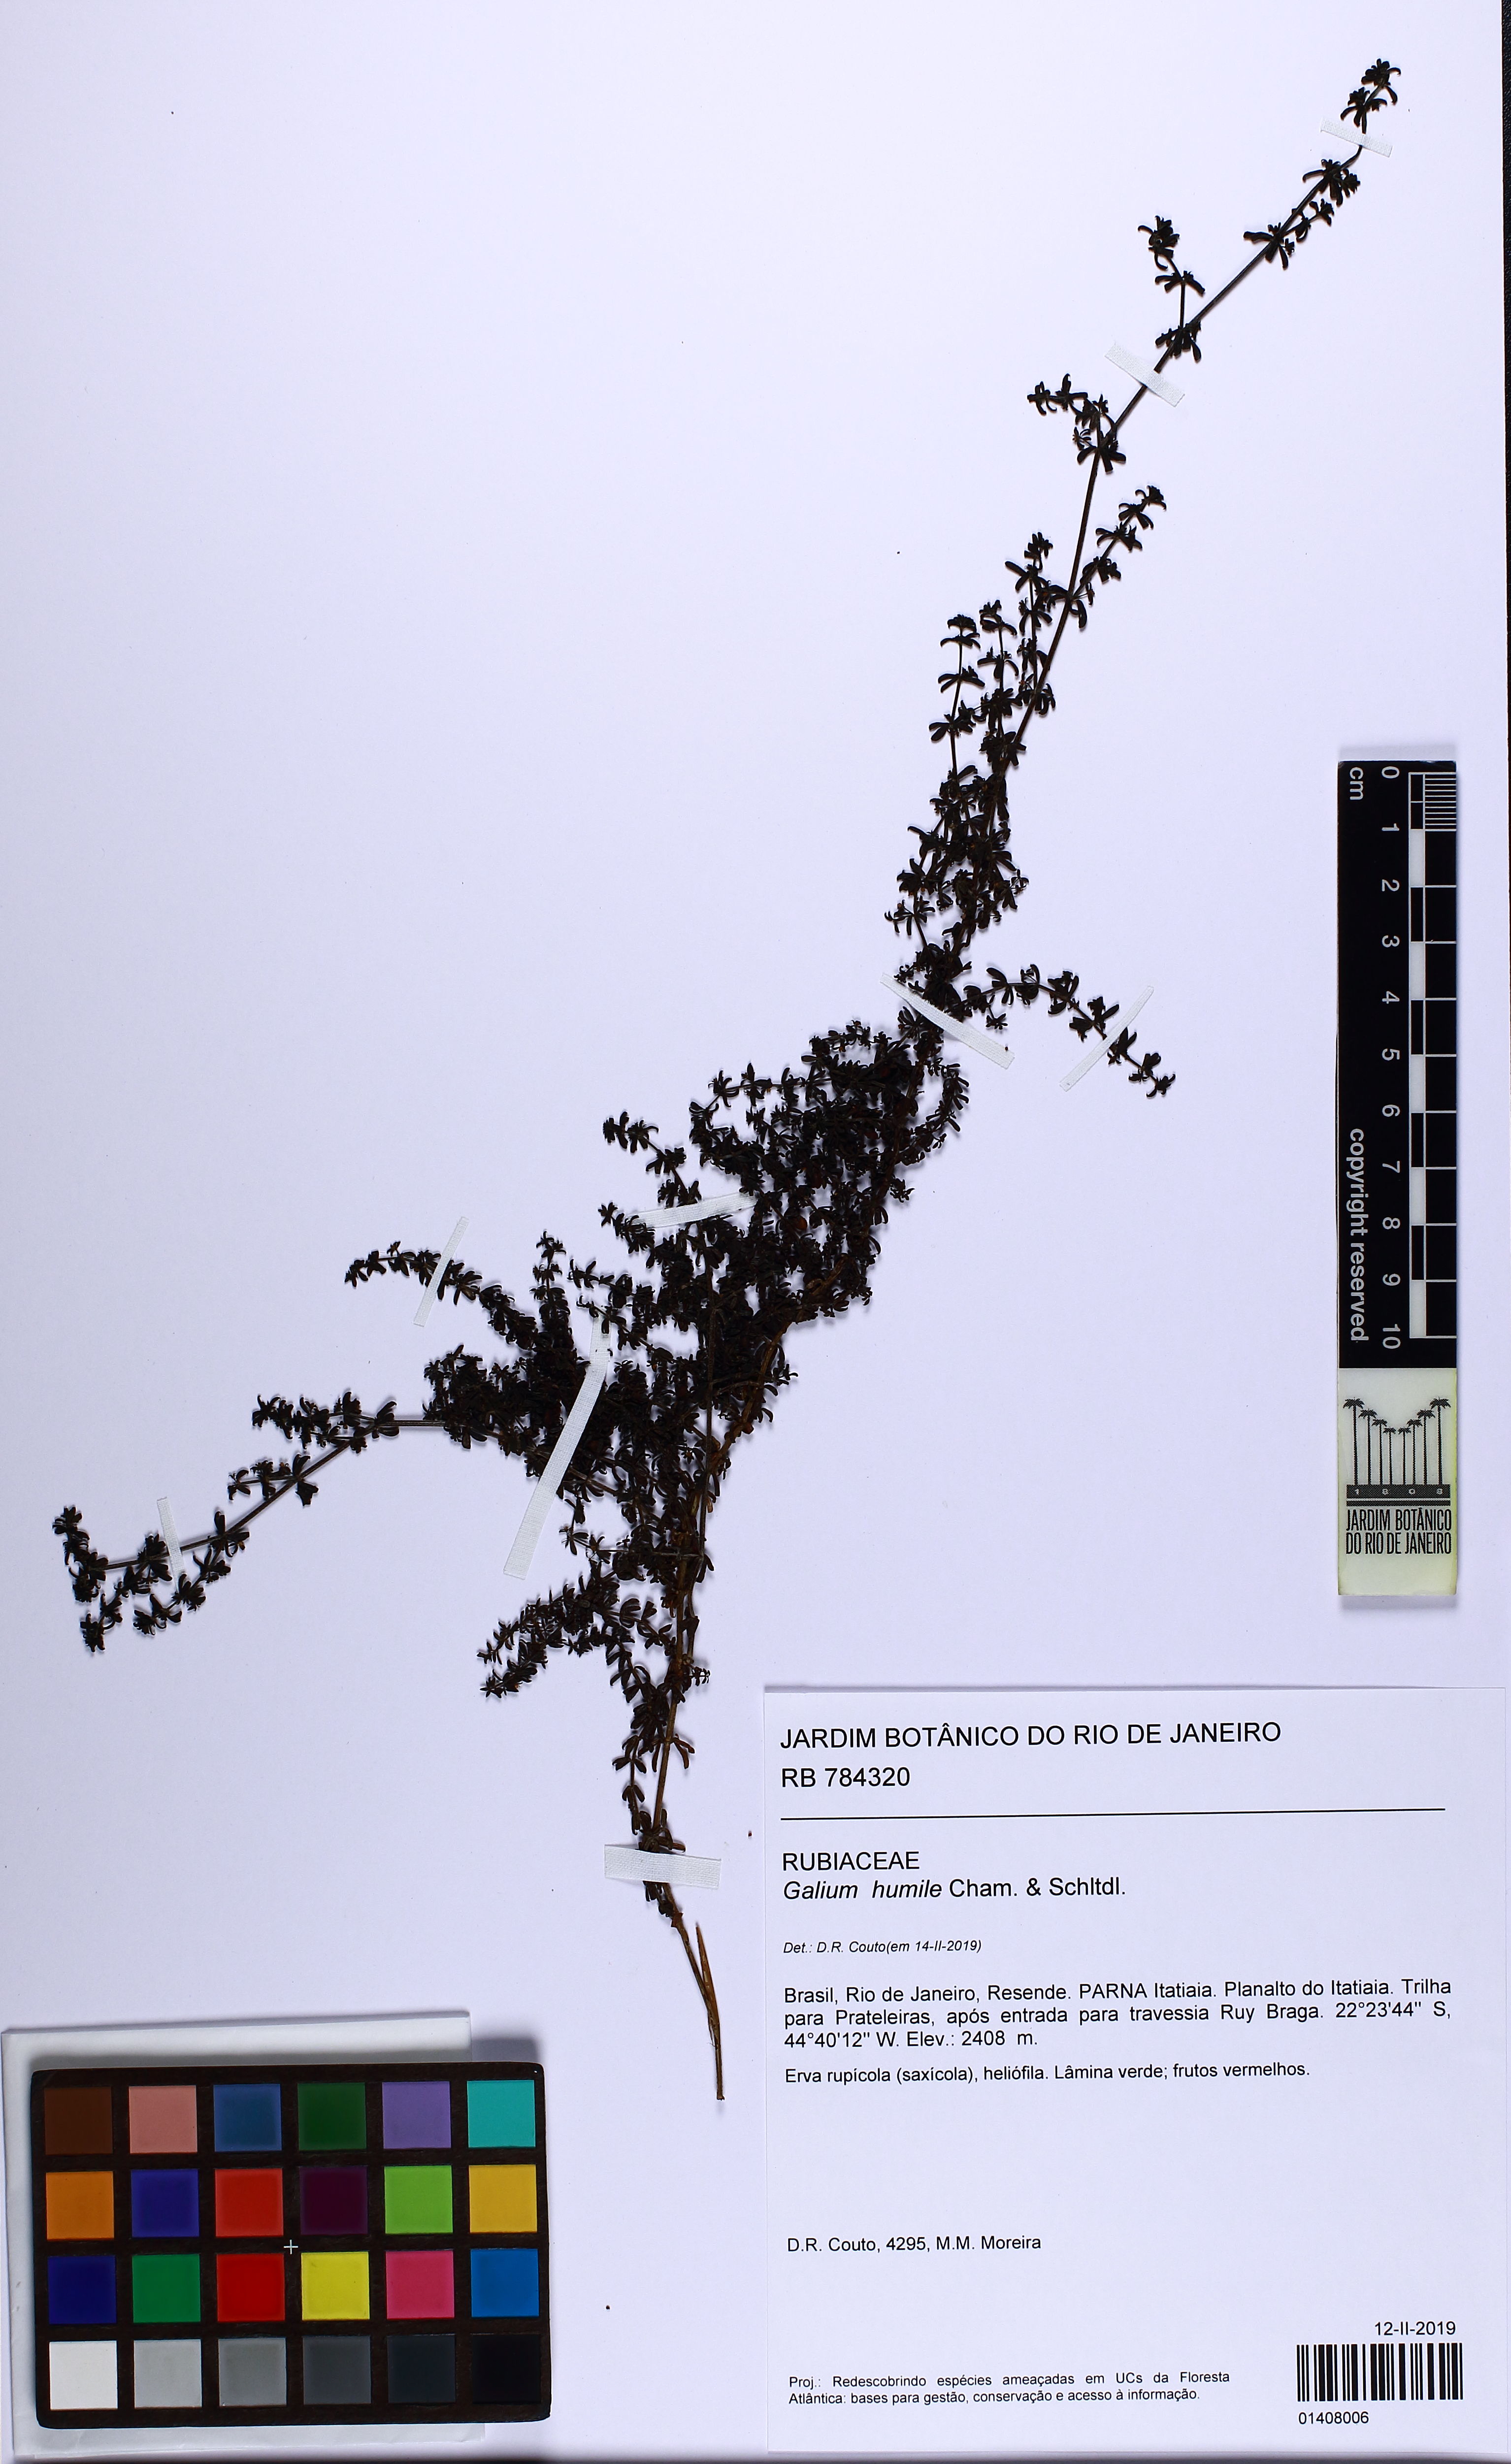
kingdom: Plantae
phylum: Tracheophyta
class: Magnoliopsida
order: Gentianales
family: Rubiaceae
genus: Galium
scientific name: Galium humile
